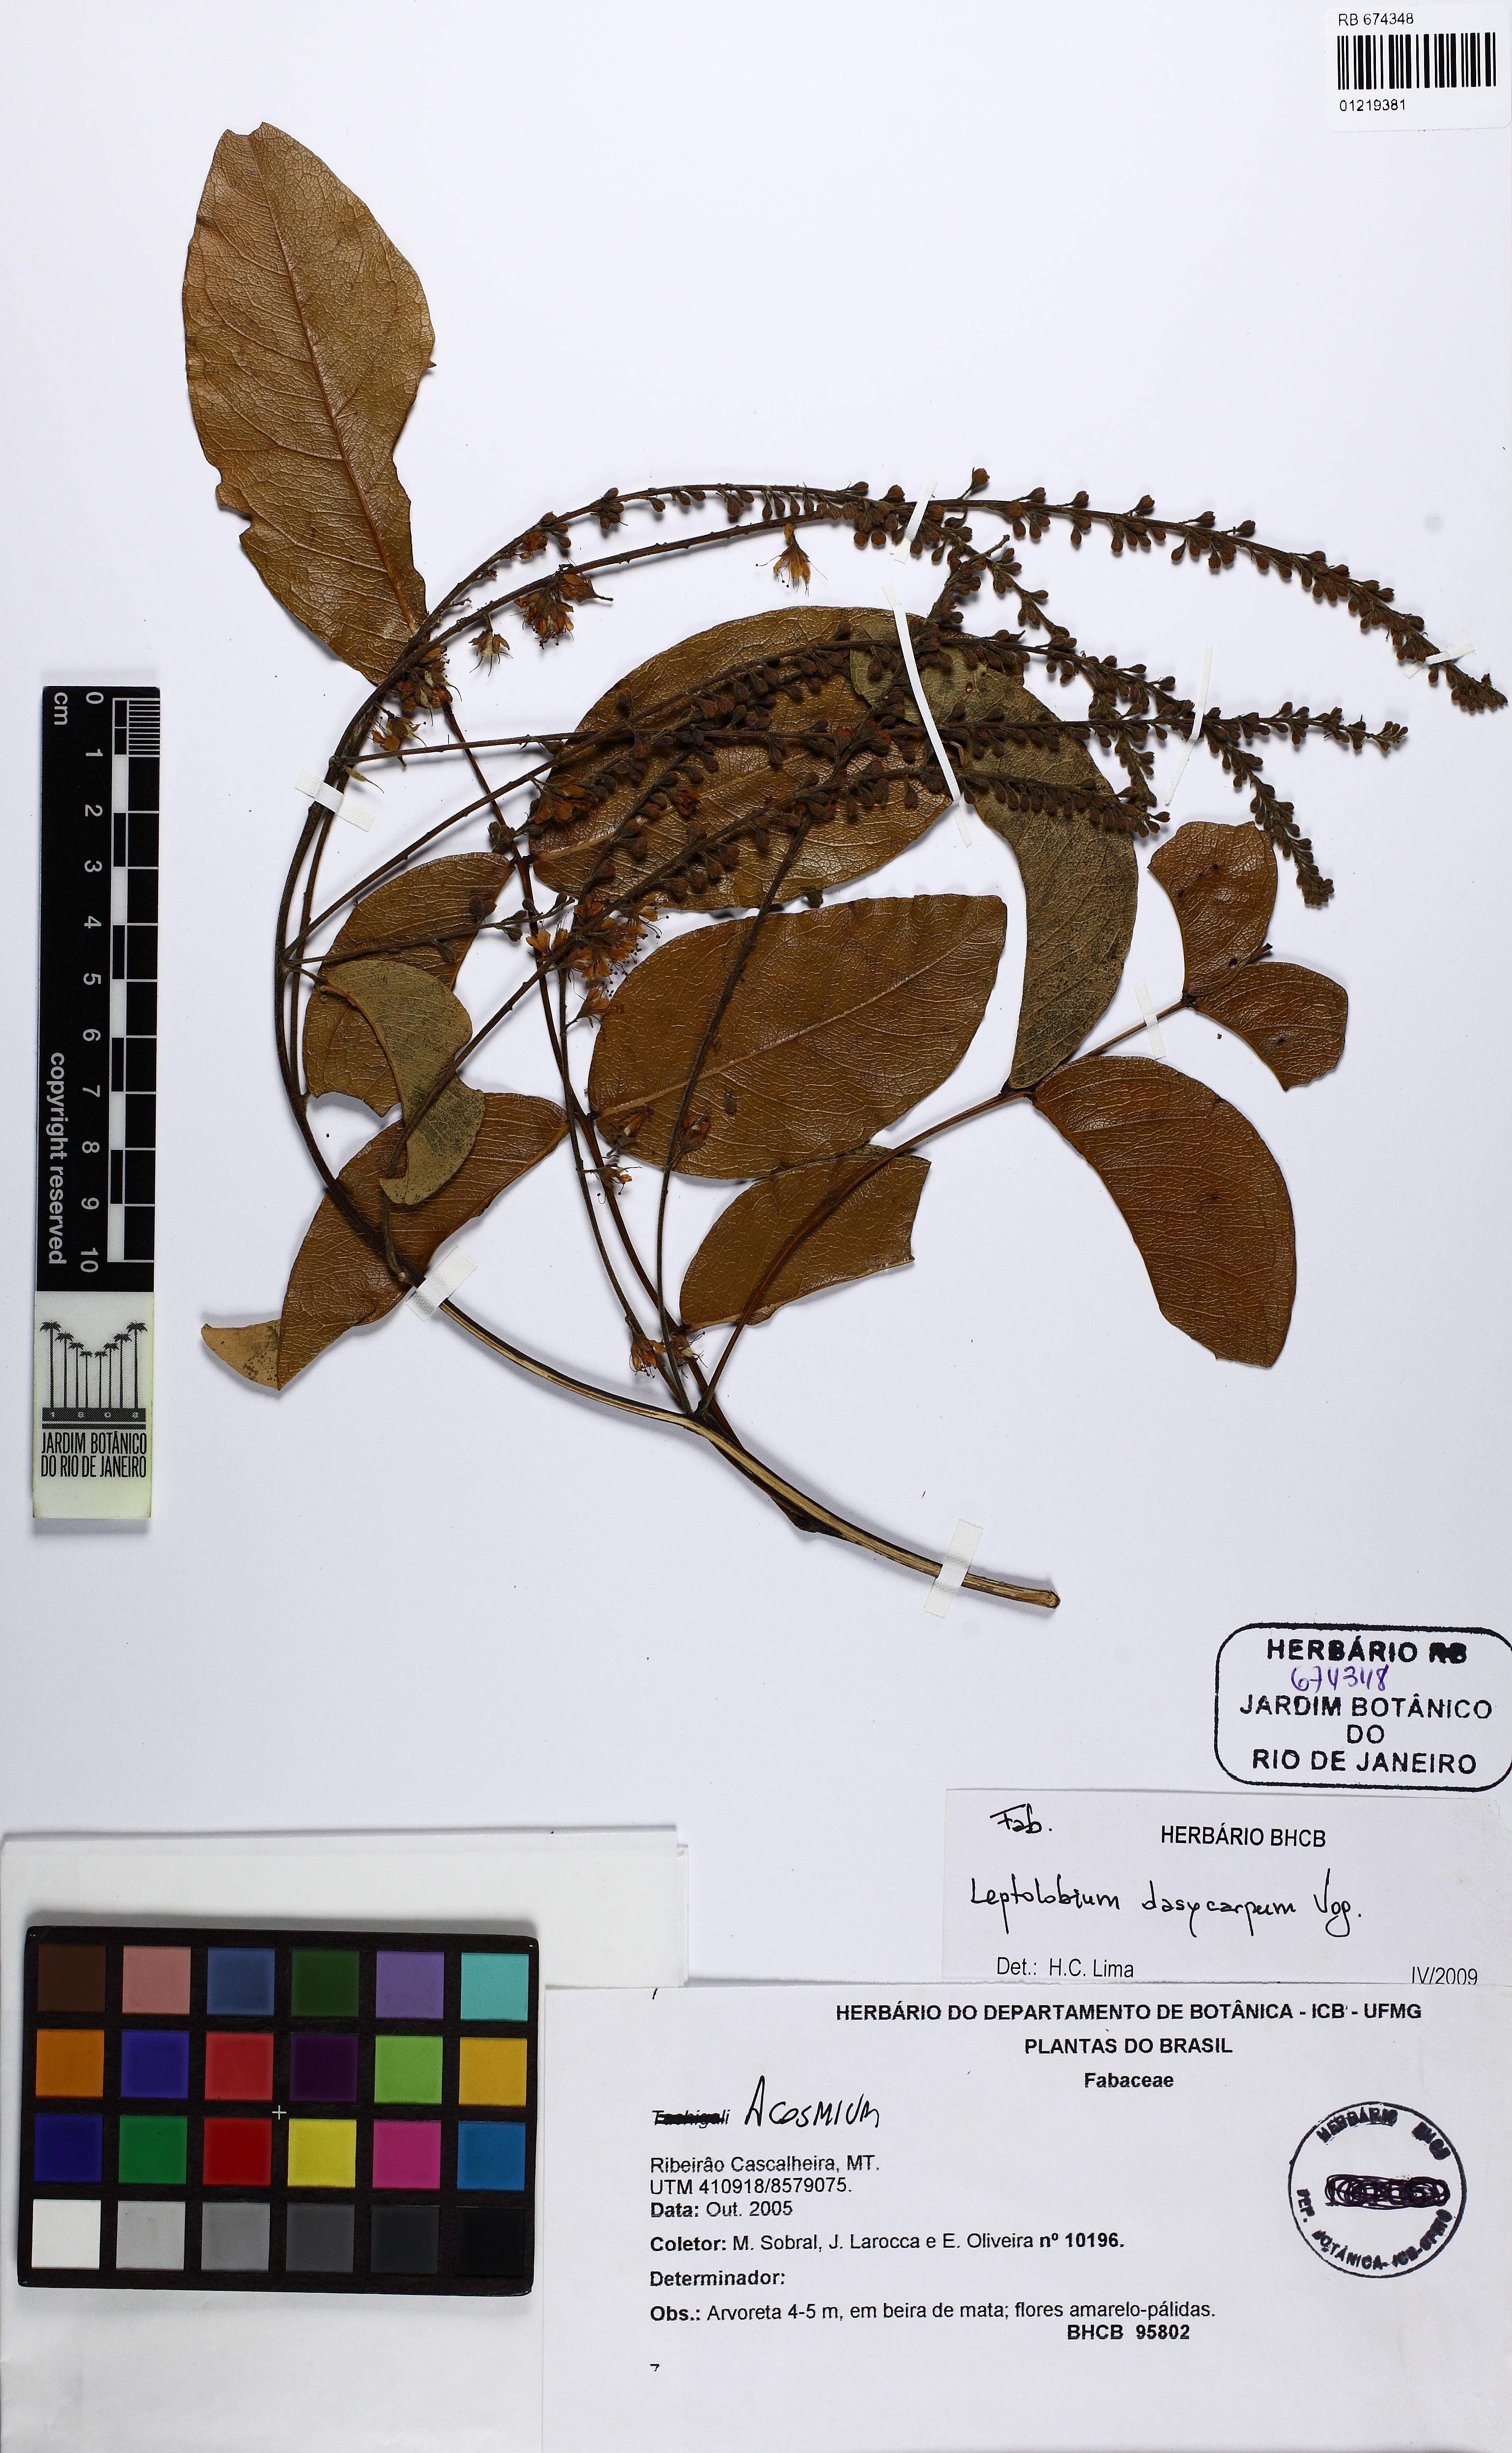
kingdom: Plantae
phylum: Tracheophyta
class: Magnoliopsida
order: Fabales
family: Fabaceae
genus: Leptolobium
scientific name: Leptolobium dasycarpum
